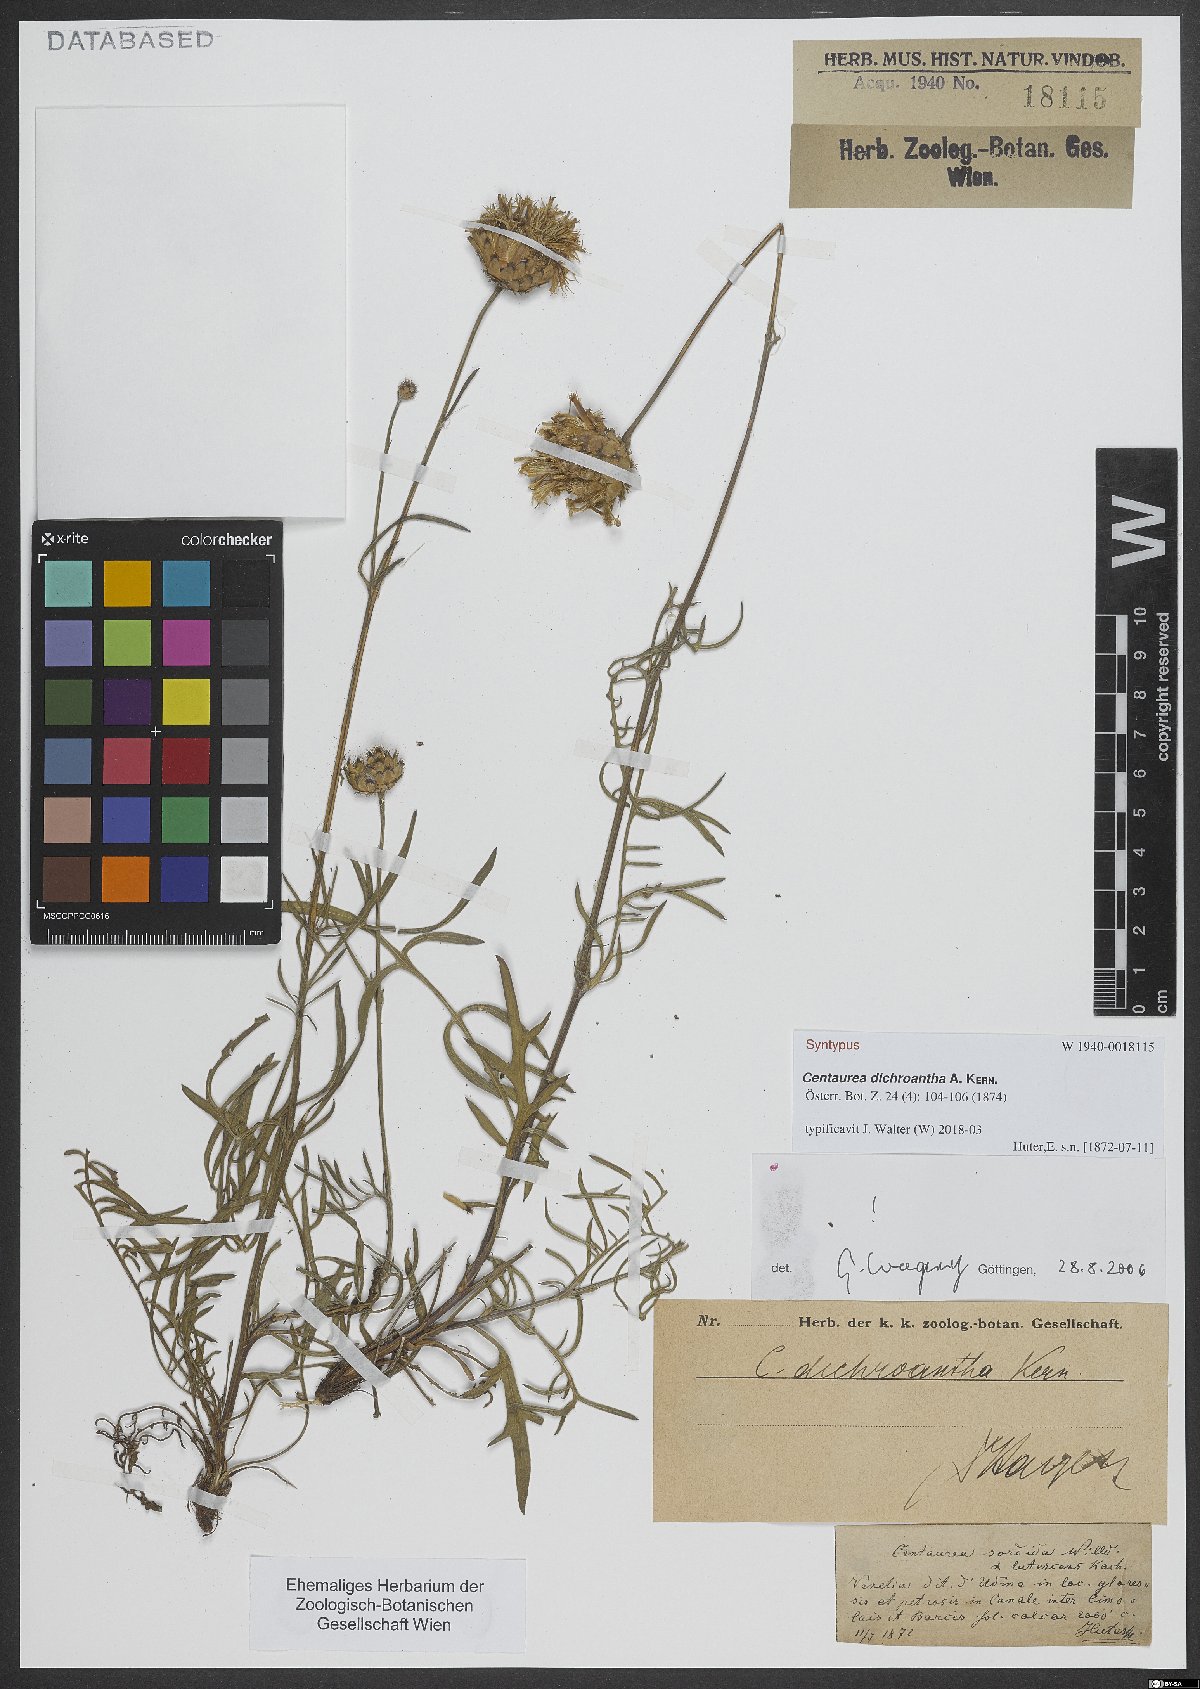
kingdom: Plantae
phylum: Tracheophyta
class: Magnoliopsida
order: Asterales
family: Asteraceae
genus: Centaurea
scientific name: Centaurea dichroantha
